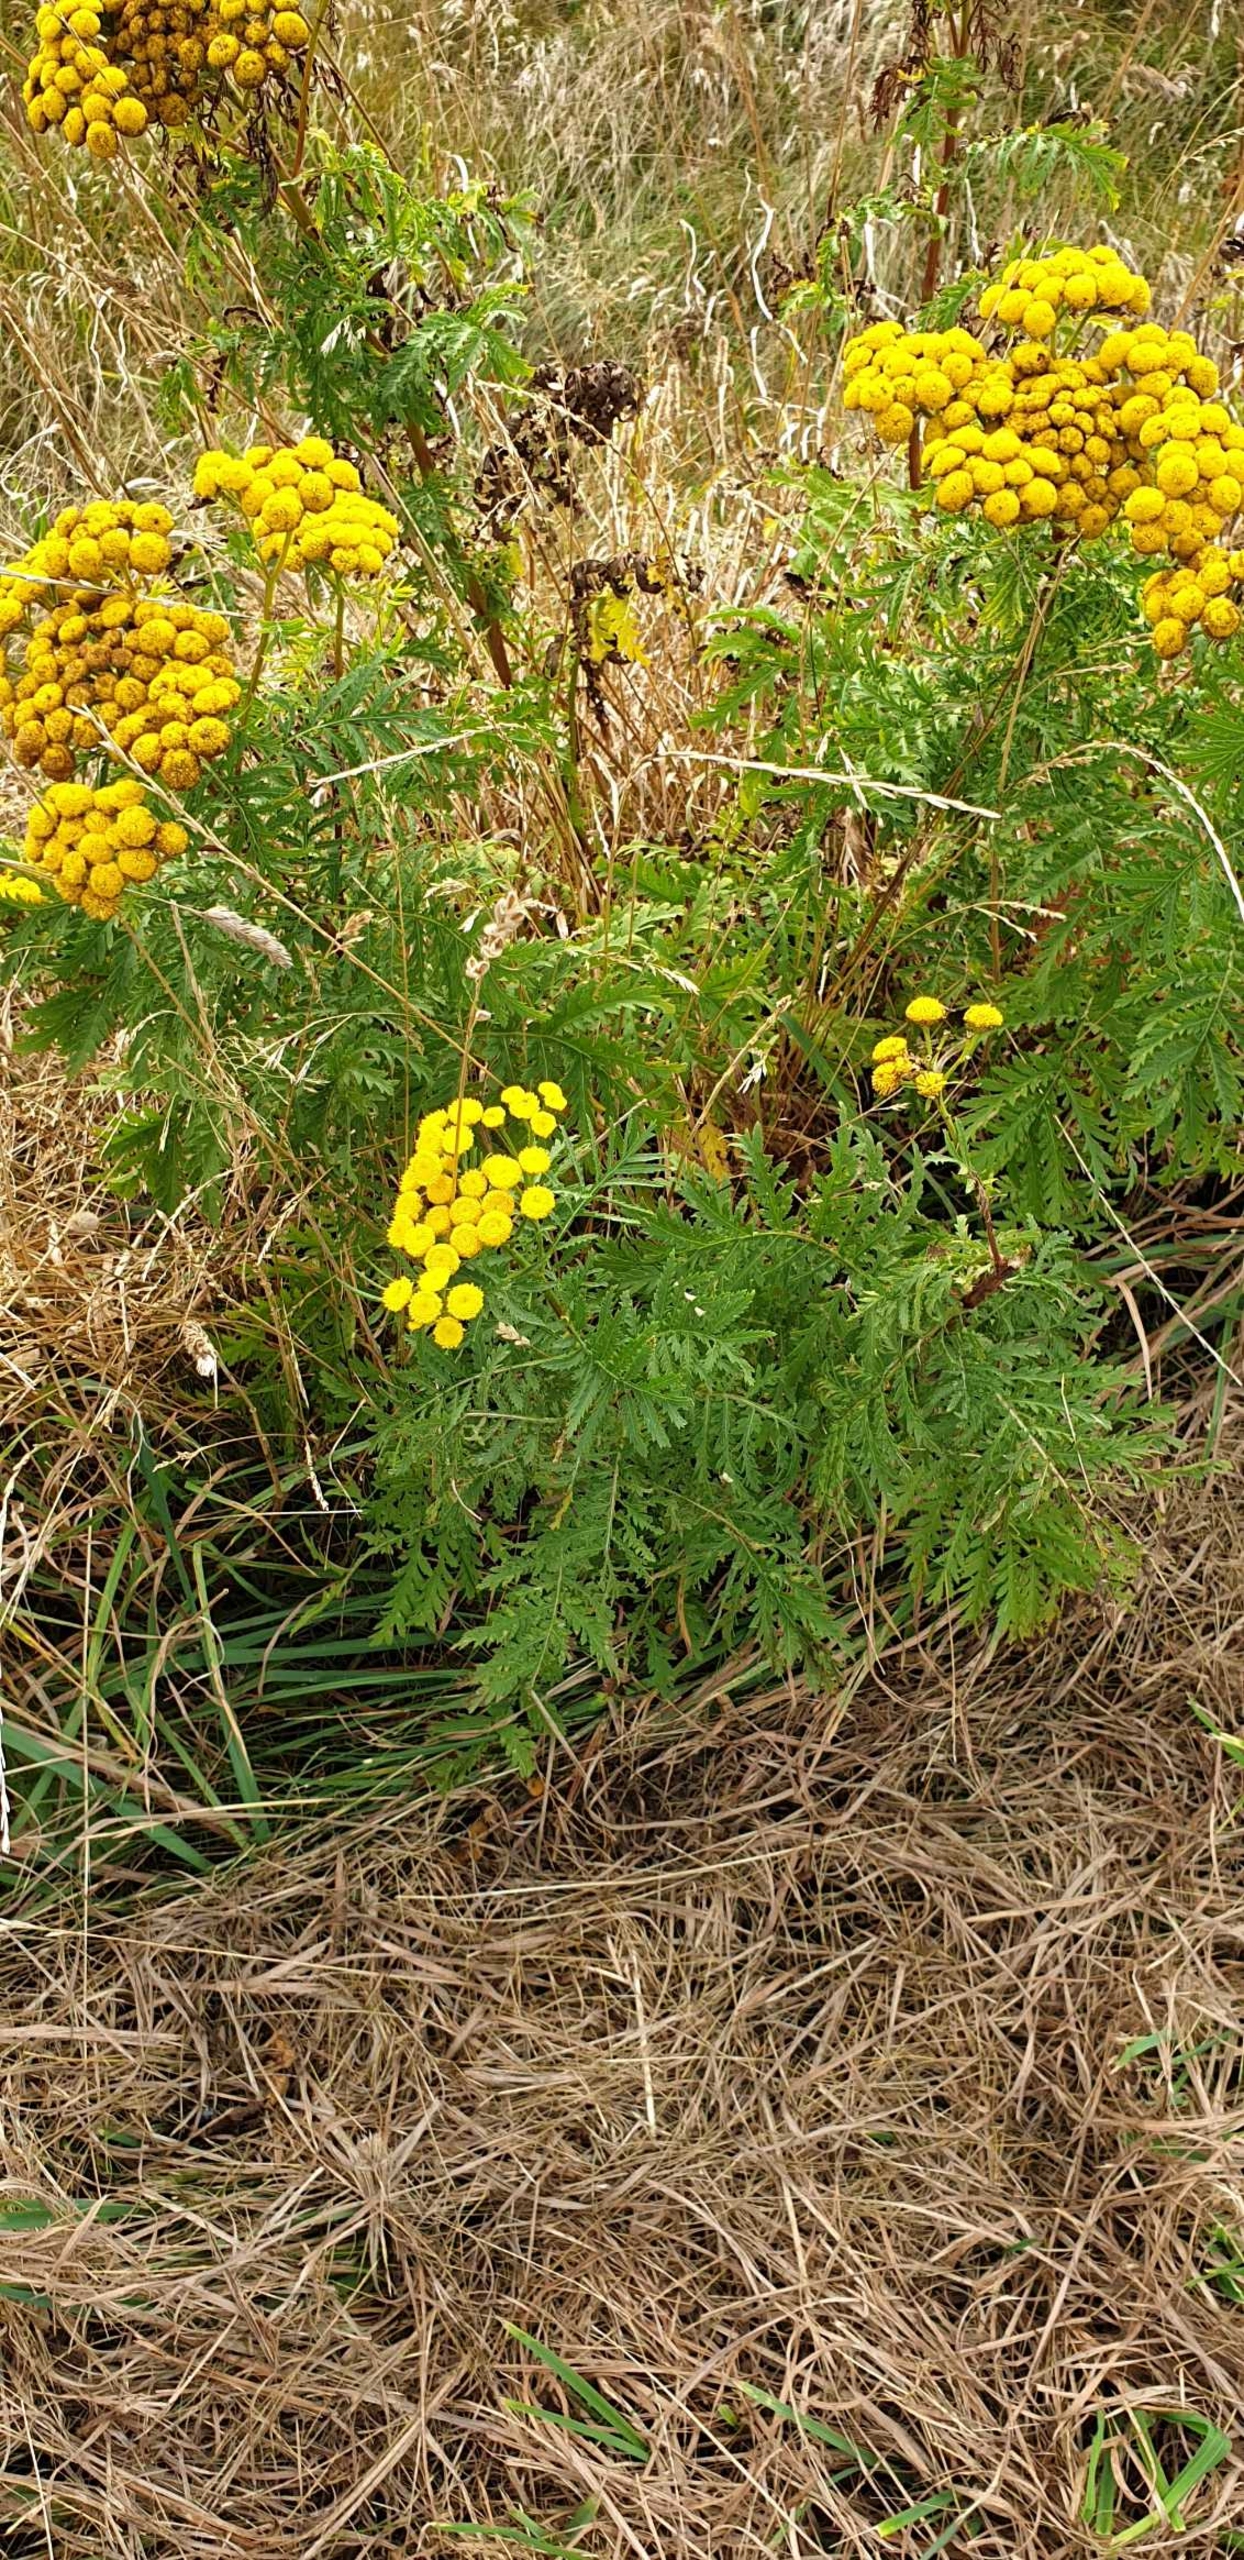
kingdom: Plantae
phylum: Tracheophyta
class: Magnoliopsida
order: Asterales
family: Asteraceae
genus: Tanacetum
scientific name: Tanacetum vulgare
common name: Rejnfan
